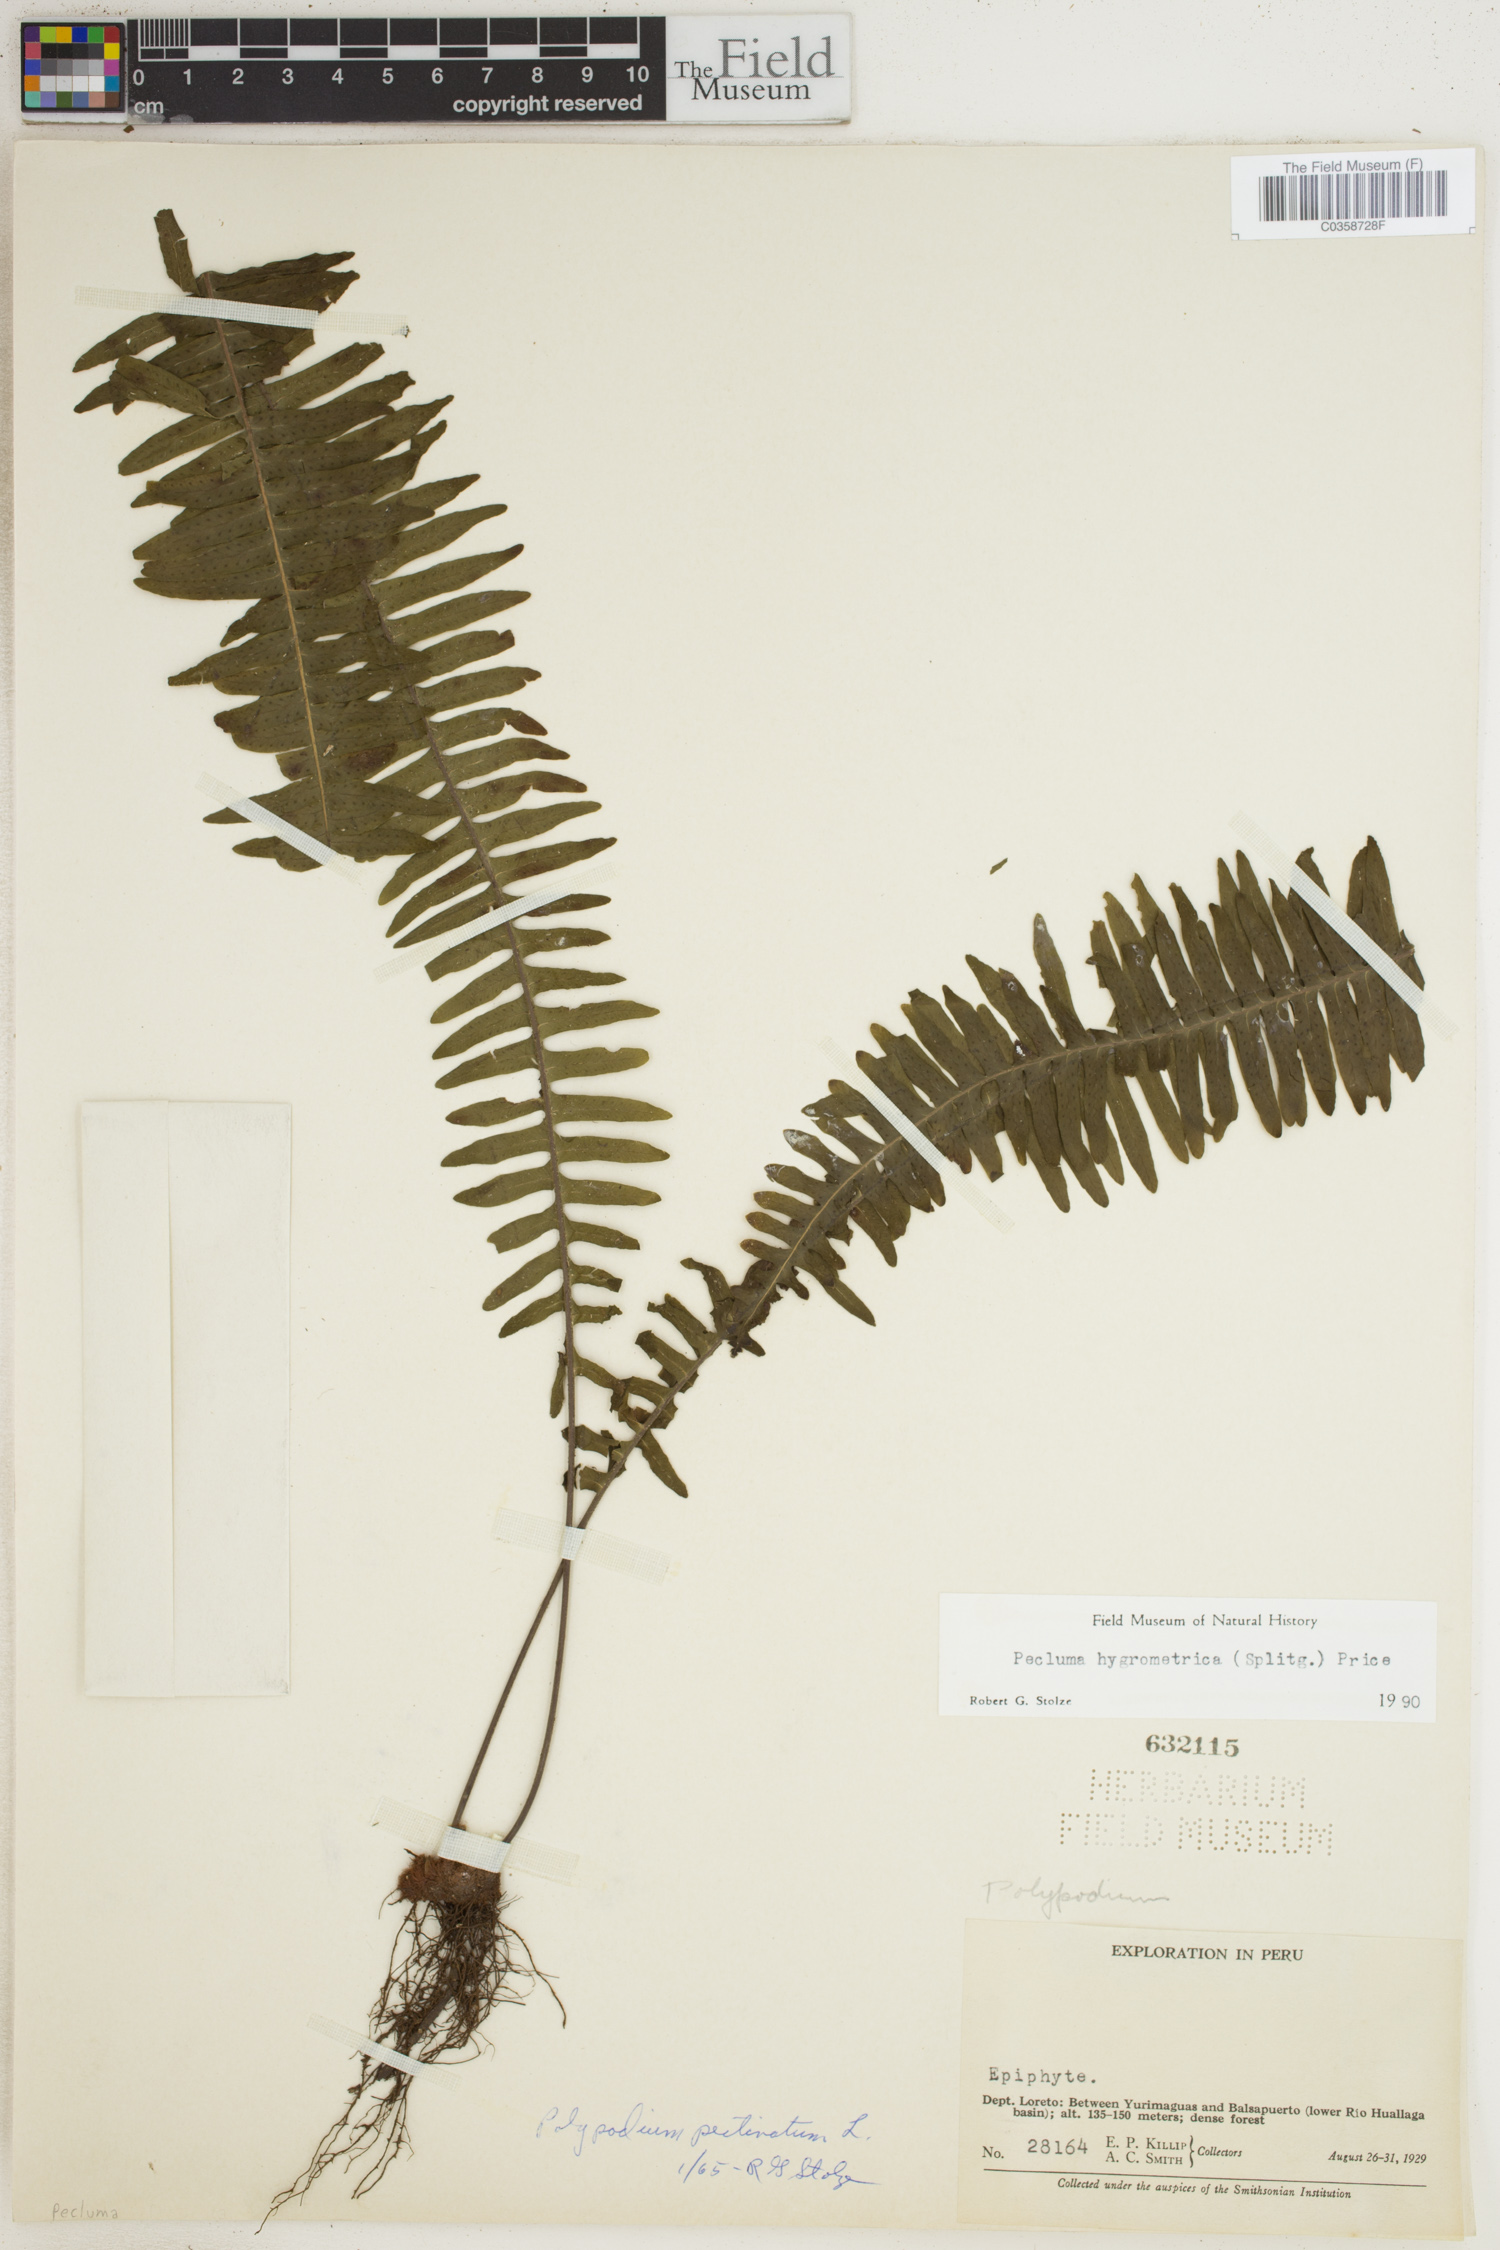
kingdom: Plantae
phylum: Tracheophyta
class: Polypodiopsida
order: Polypodiales
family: Polypodiaceae
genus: Pecluma
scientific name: Pecluma hygrometrica
